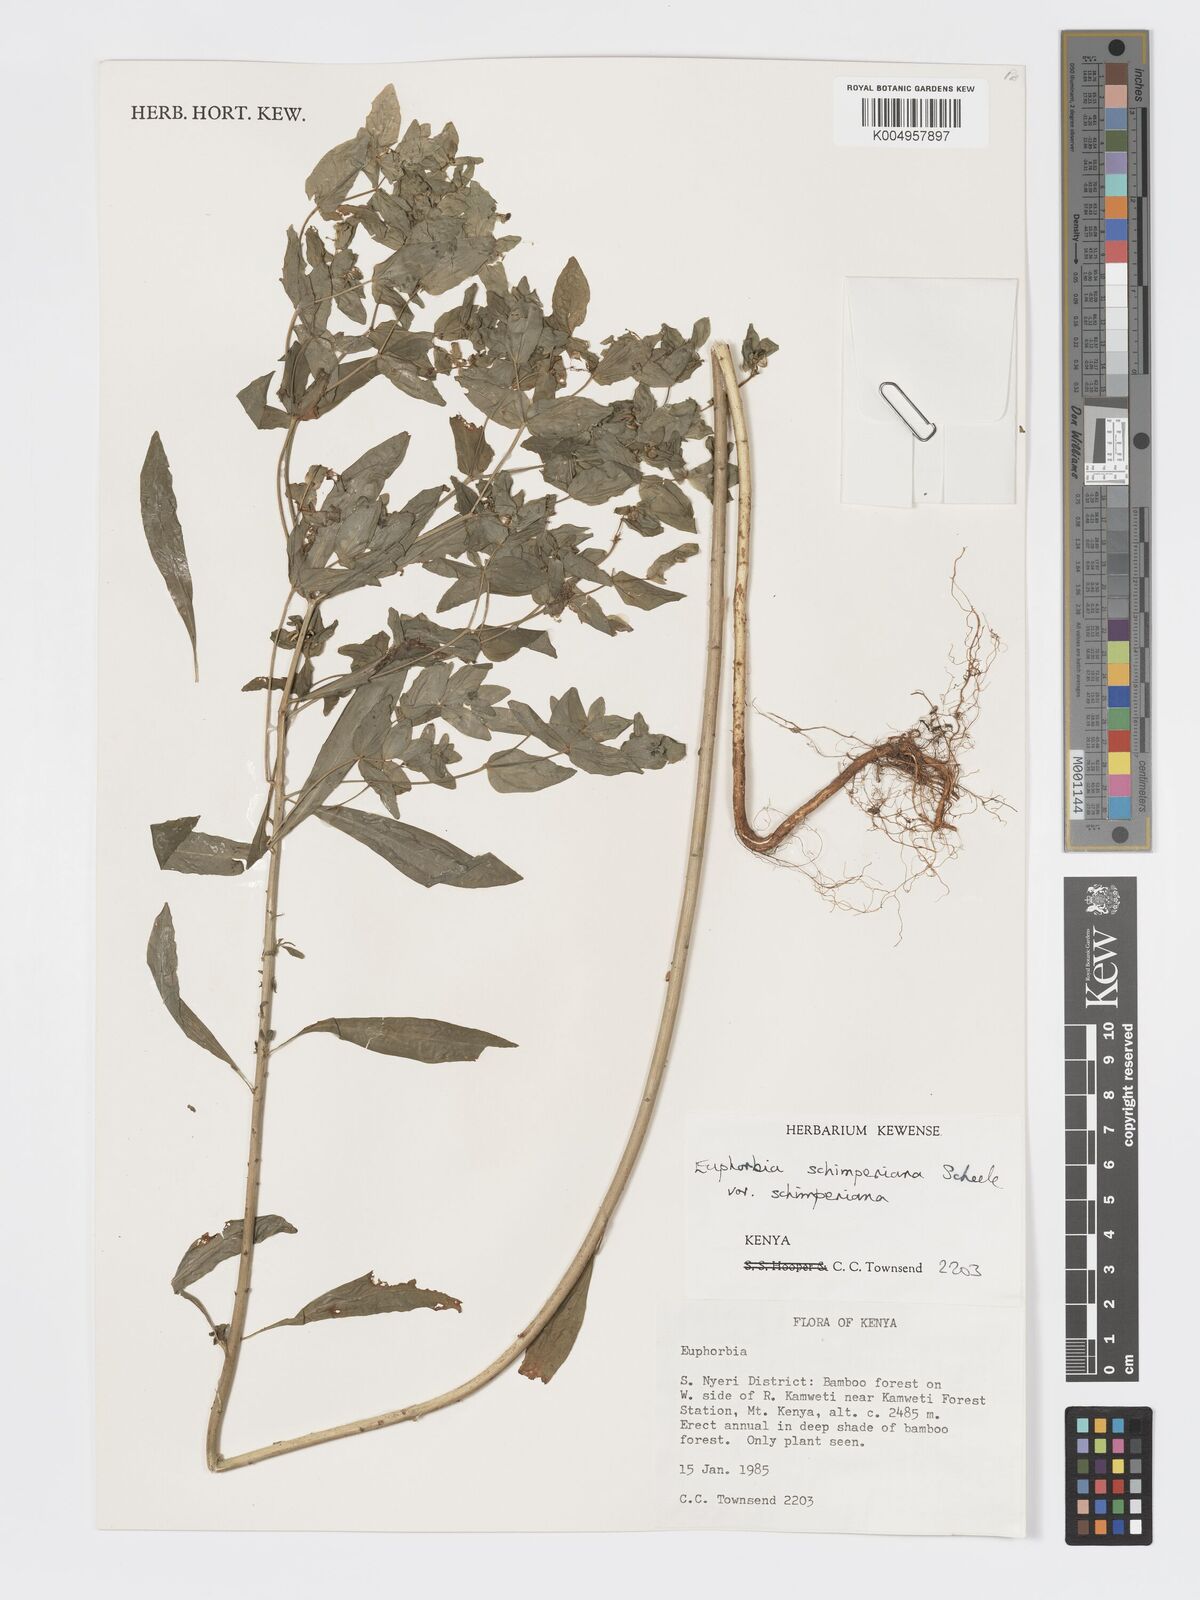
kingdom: Plantae
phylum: Tracheophyta
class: Magnoliopsida
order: Malpighiales
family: Euphorbiaceae
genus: Euphorbia
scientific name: Euphorbia schimperiana
